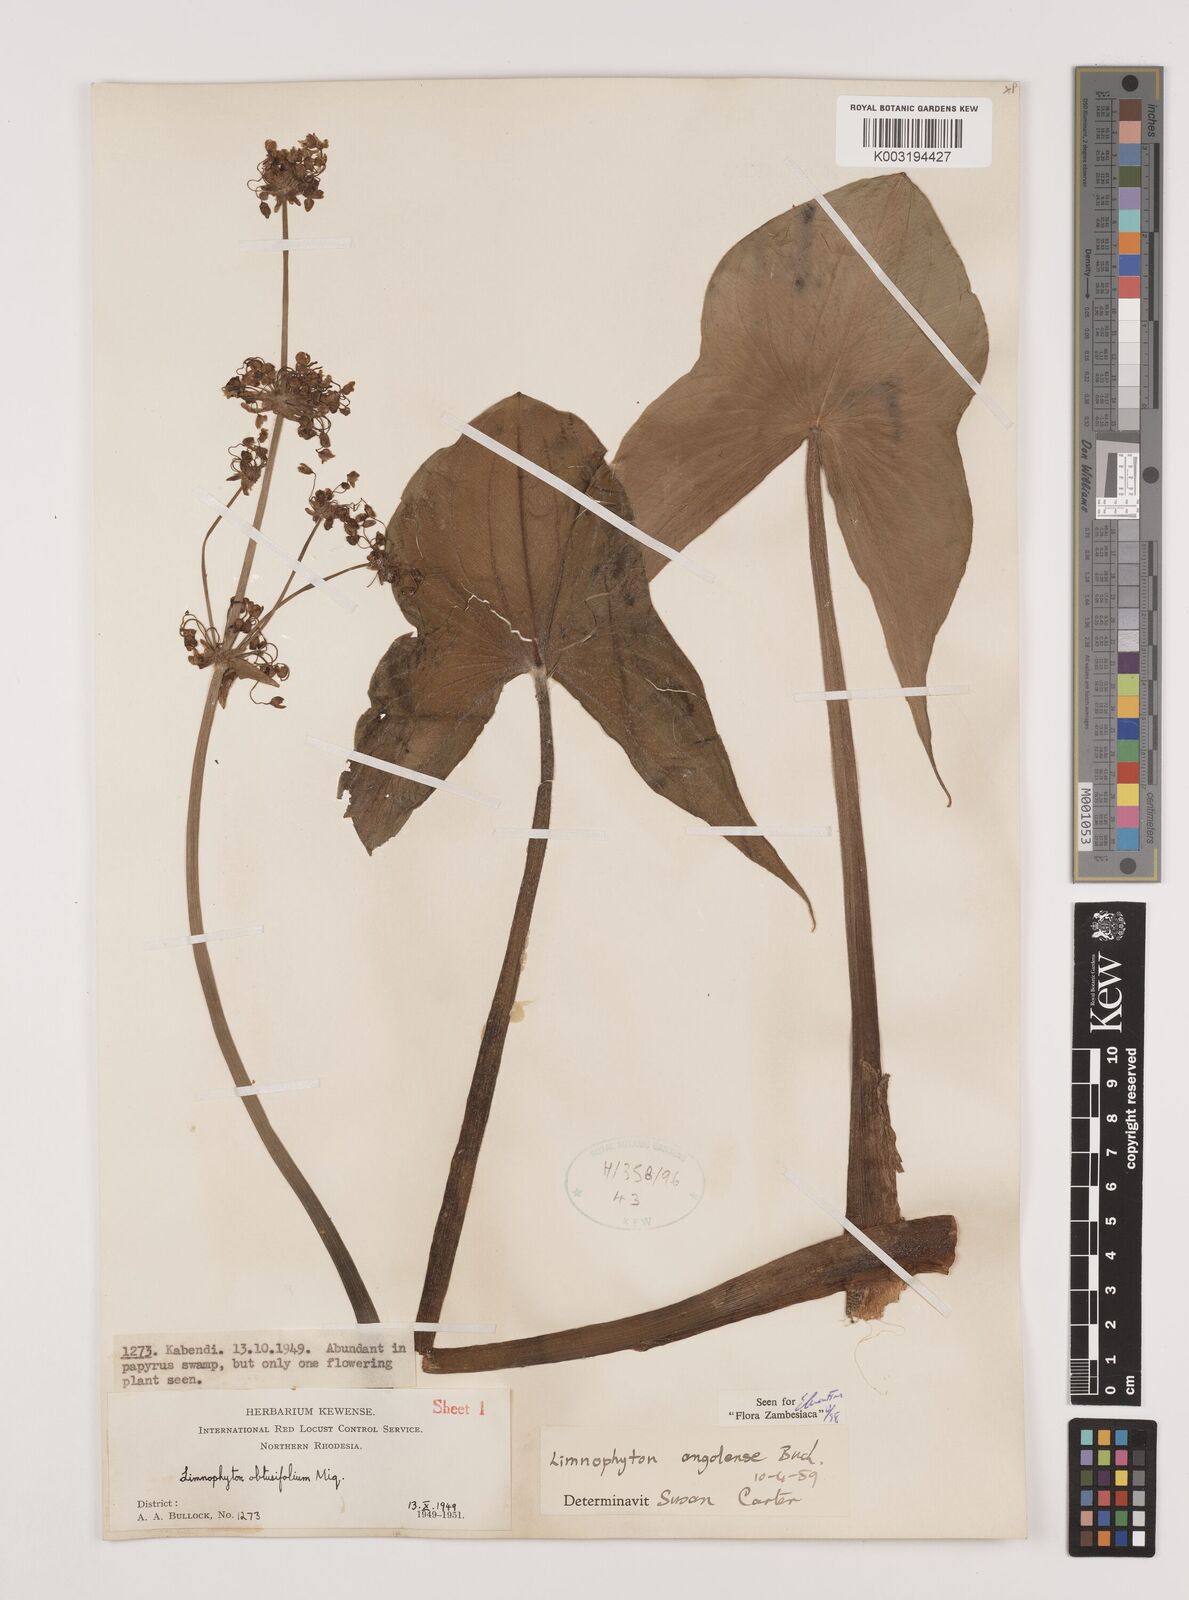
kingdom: Plantae
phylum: Tracheophyta
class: Liliopsida
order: Alismatales
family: Alismataceae
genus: Limnophyton
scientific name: Limnophyton
